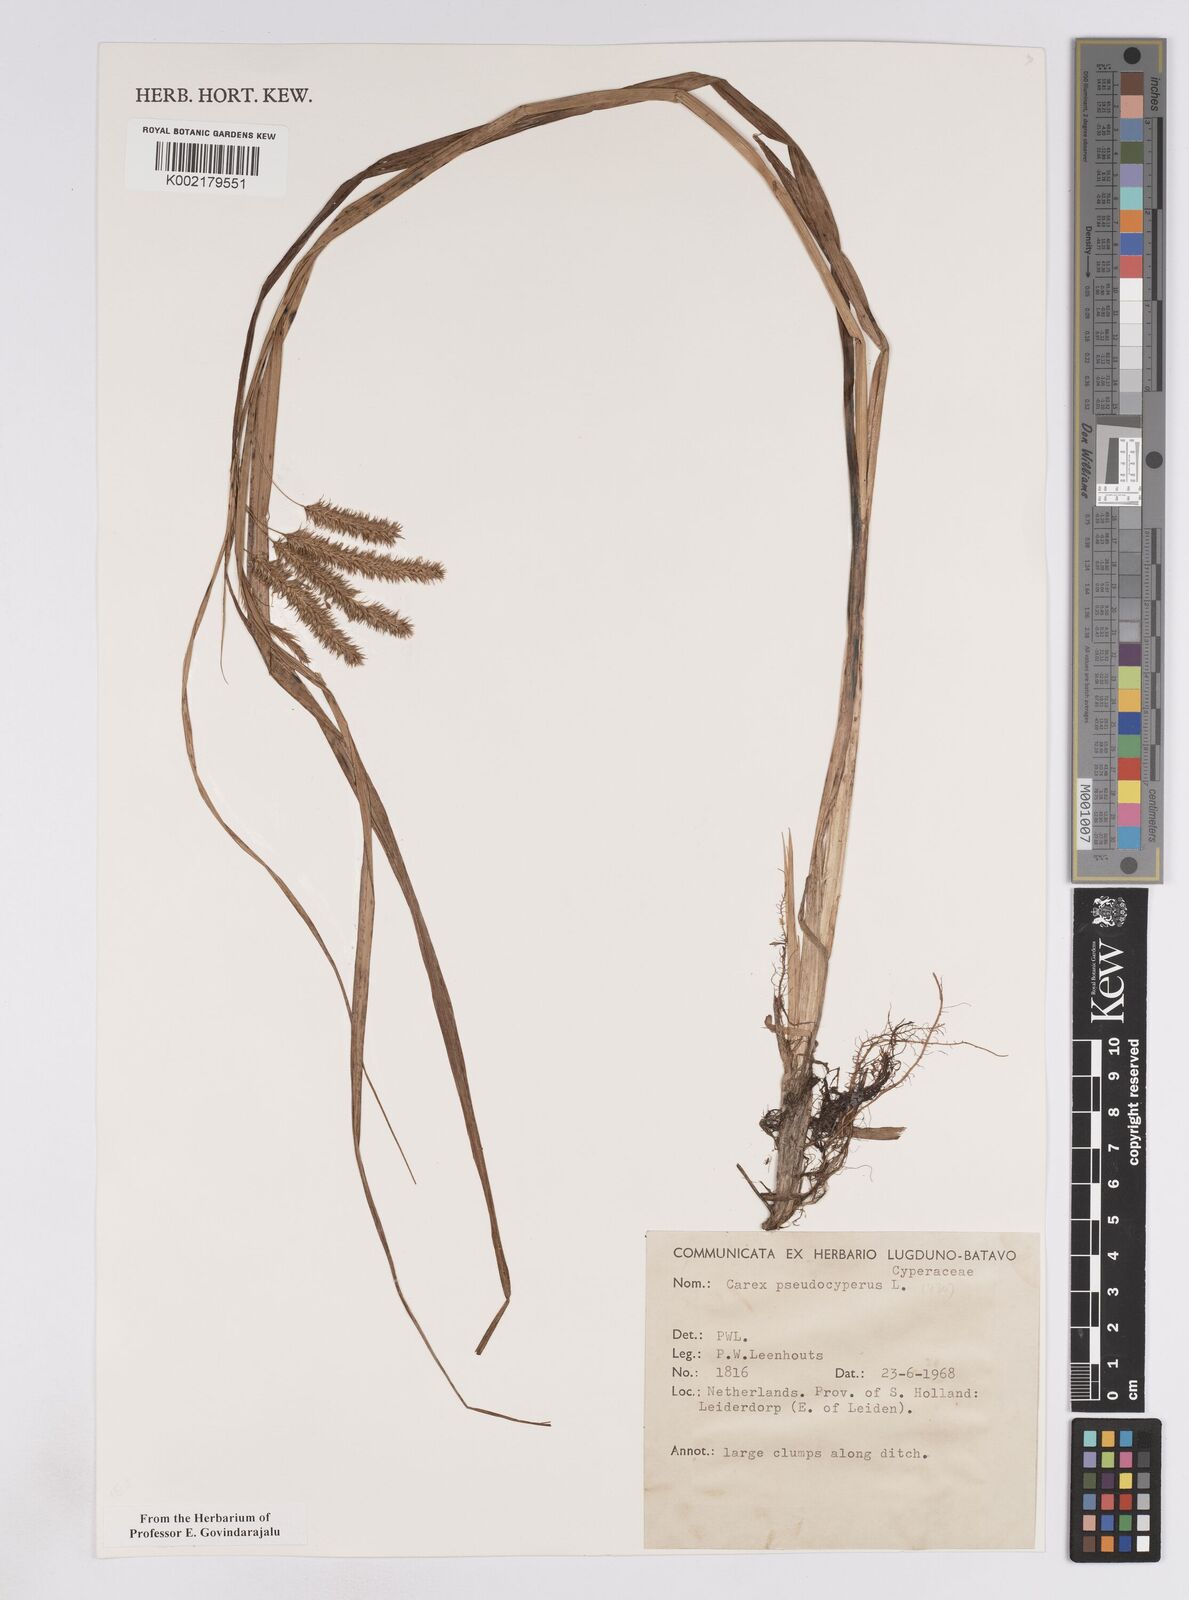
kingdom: Plantae
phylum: Tracheophyta
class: Liliopsida
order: Poales
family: Cyperaceae
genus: Carex
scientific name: Carex pseudocyperus
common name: Cyperus sedge
